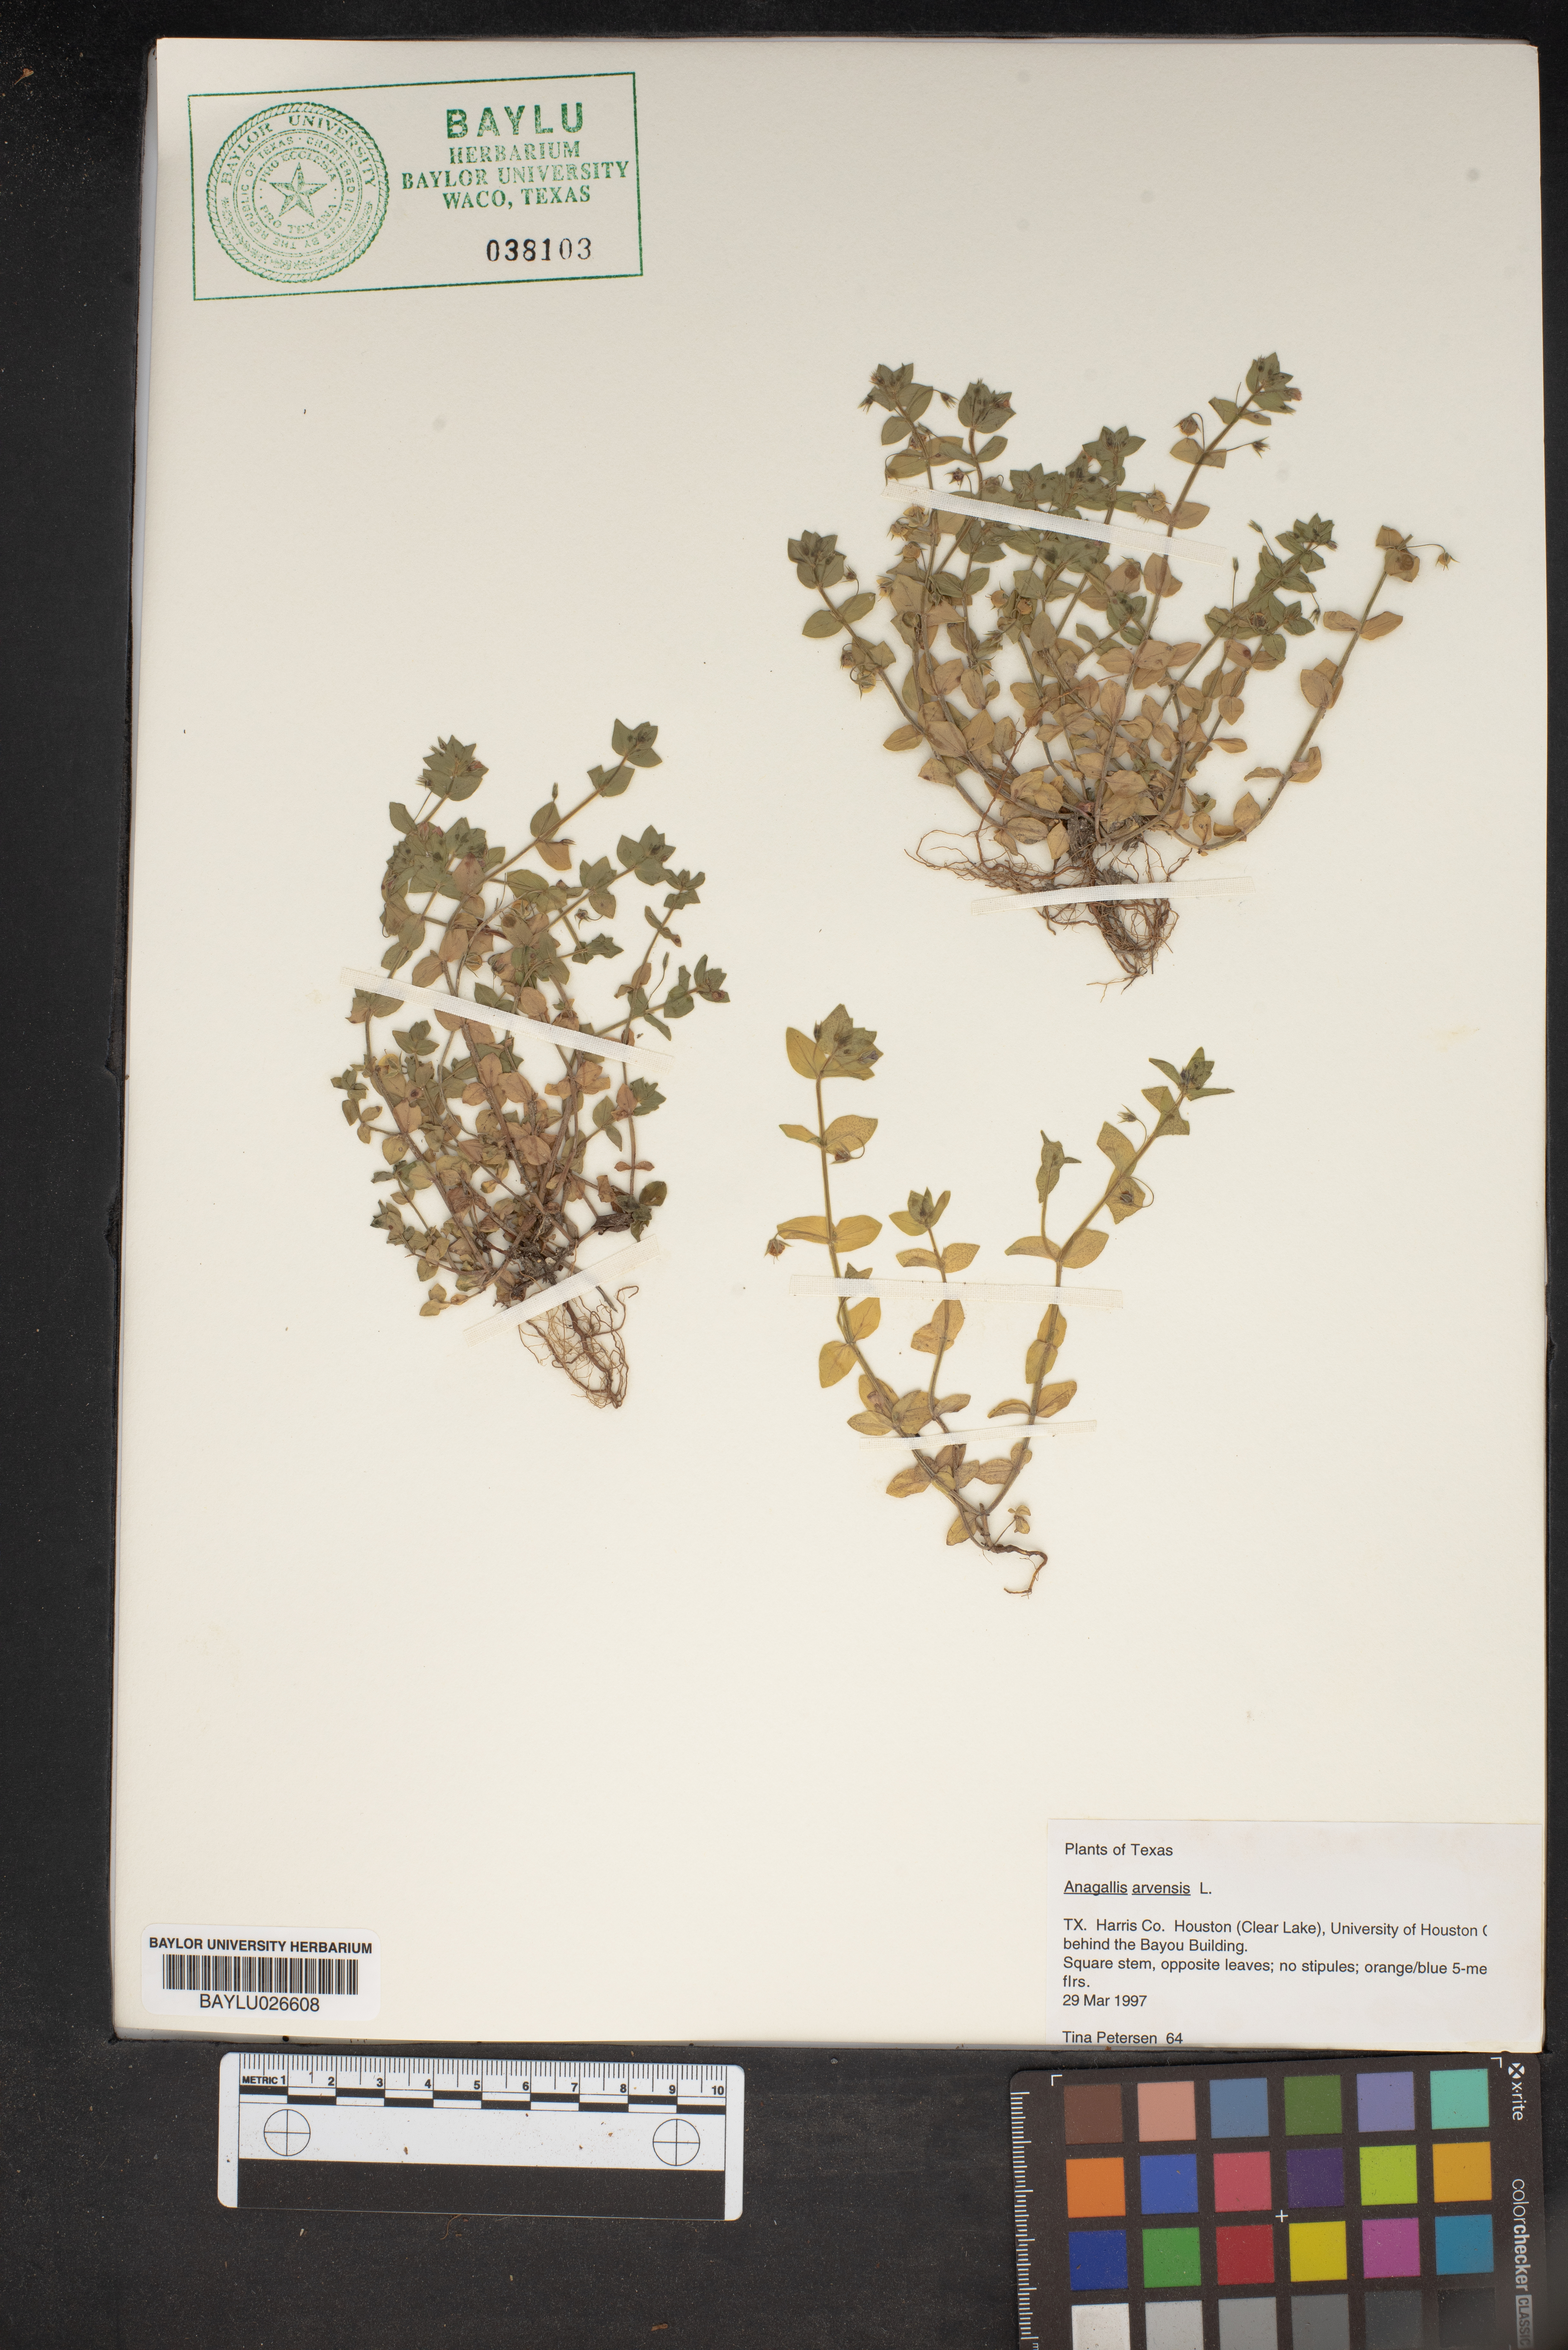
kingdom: Plantae
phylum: Tracheophyta
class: Magnoliopsida
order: Ericales
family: Primulaceae
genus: Lysimachia
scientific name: Lysimachia arvensis
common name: Scarlet pimpernel
